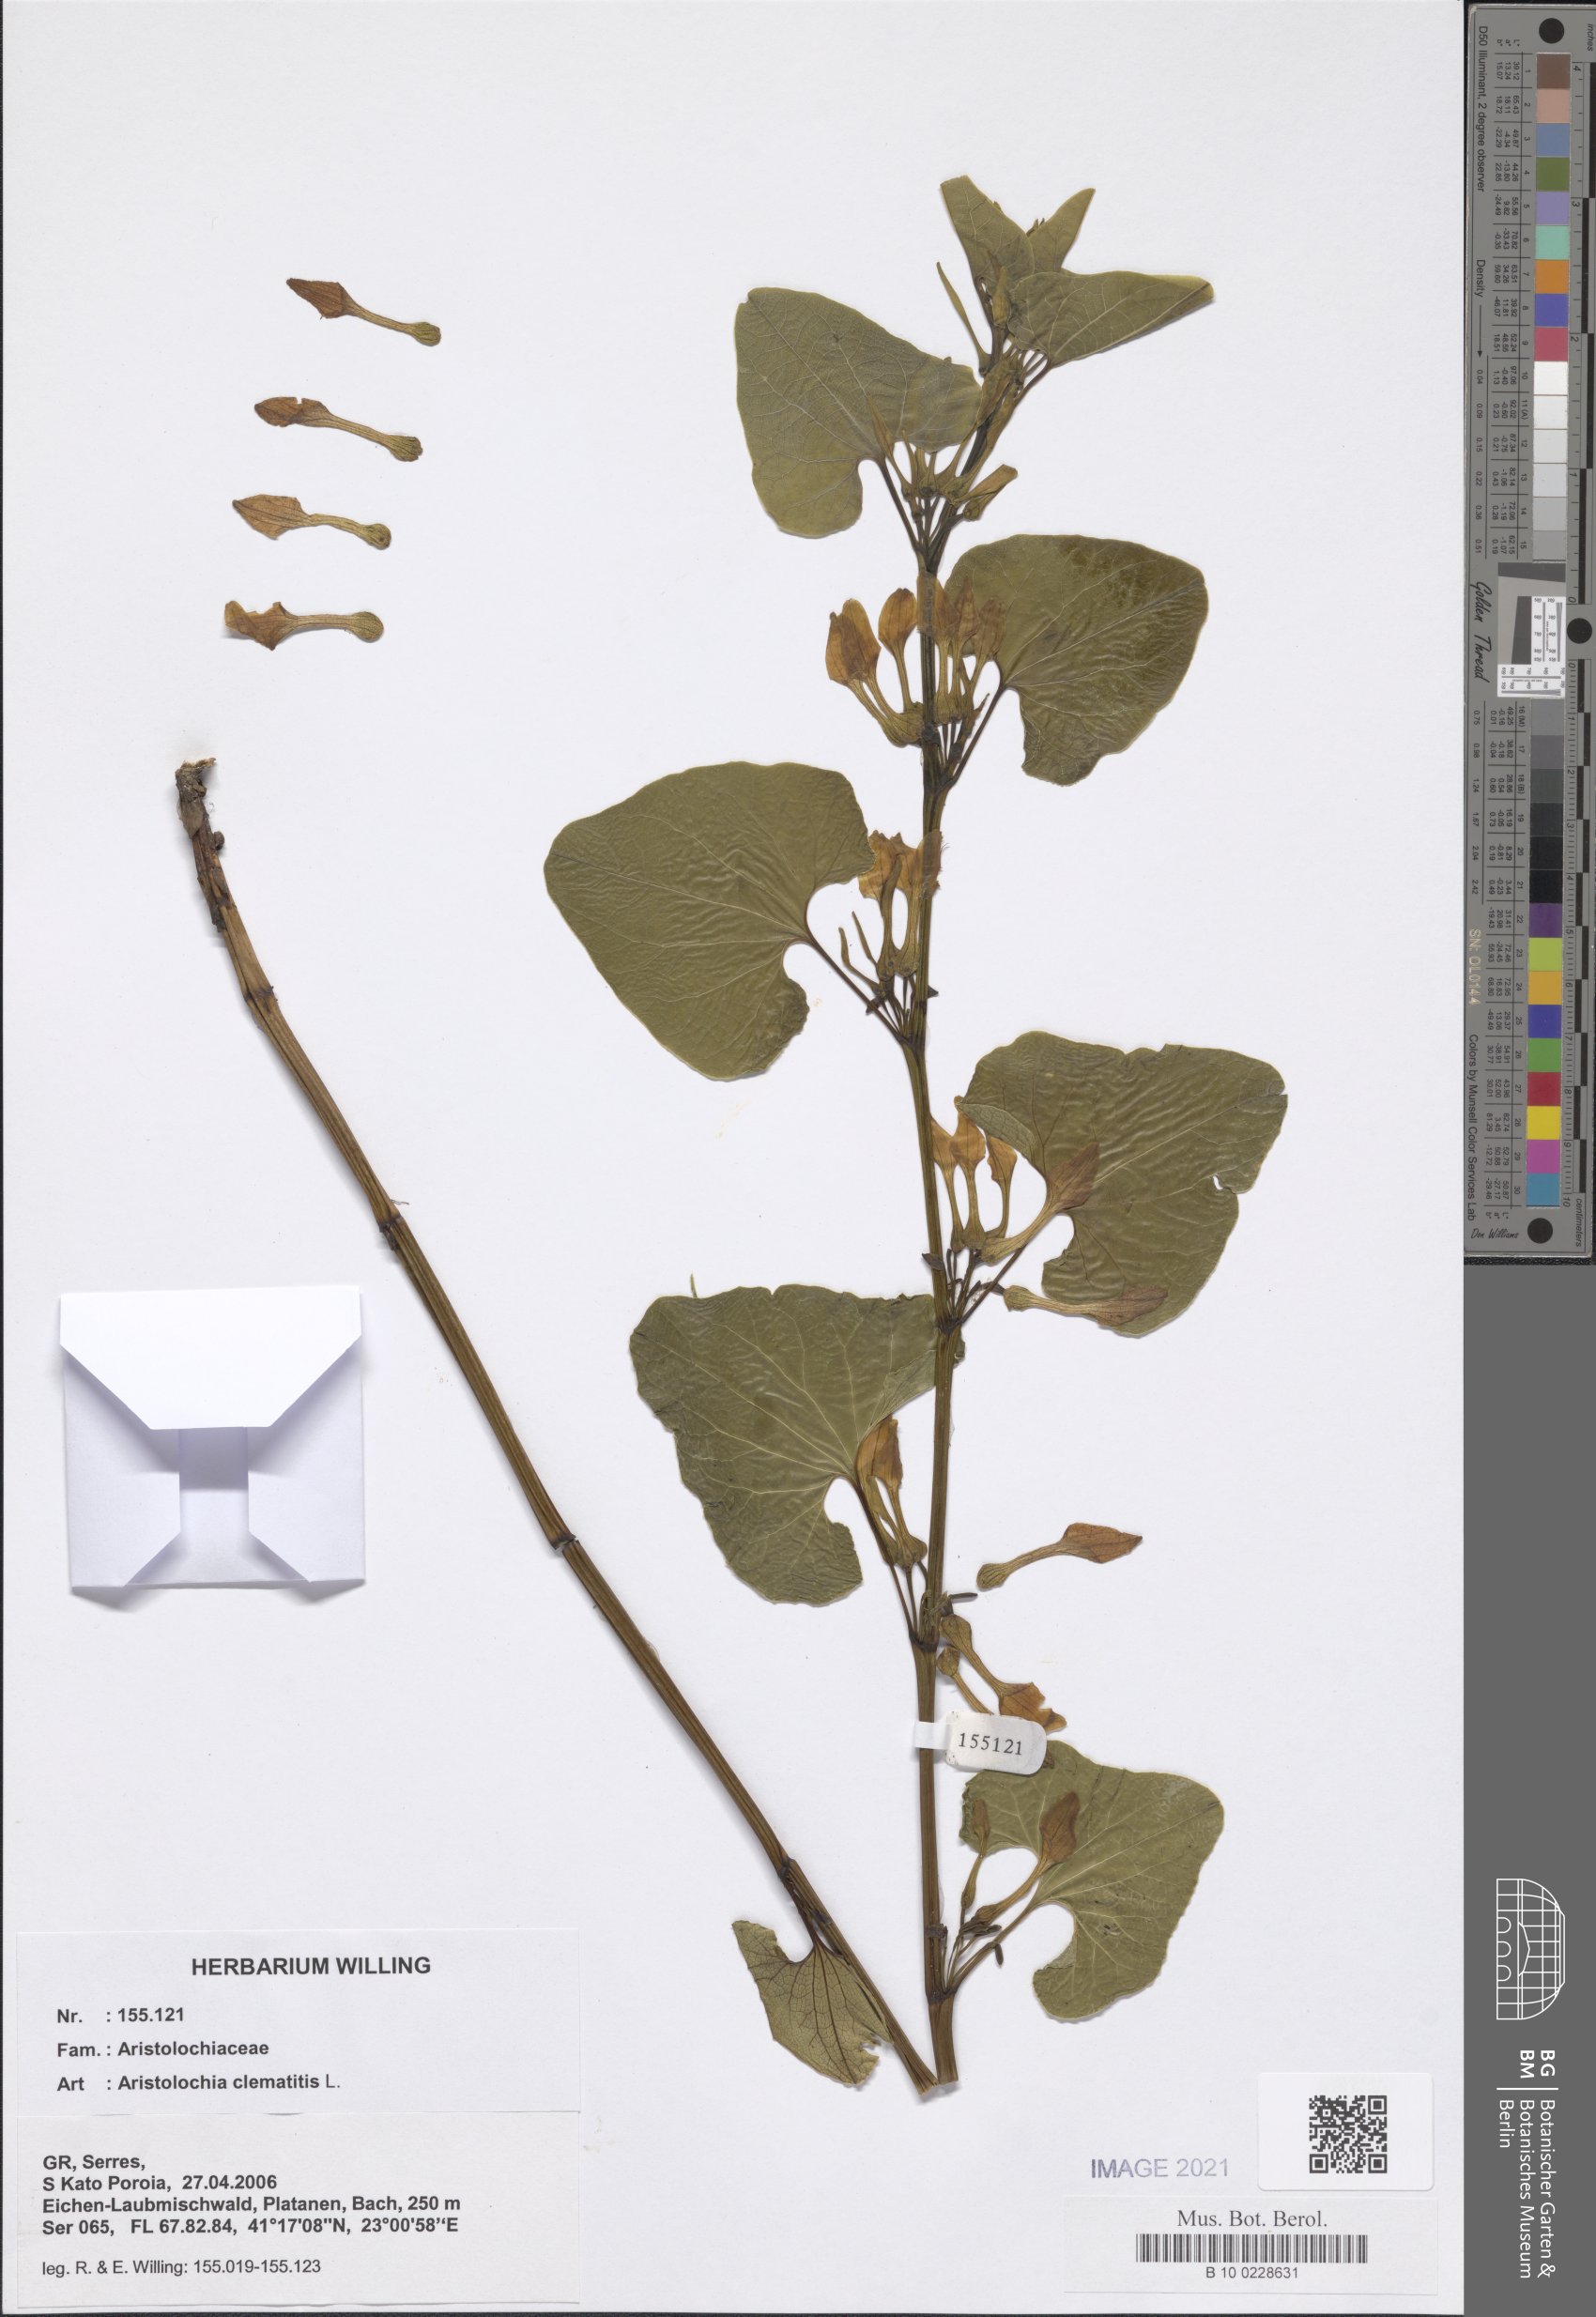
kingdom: Plantae
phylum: Tracheophyta
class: Magnoliopsida
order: Piperales
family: Aristolochiaceae
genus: Aristolochia
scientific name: Aristolochia clematitis
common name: Birthwort
